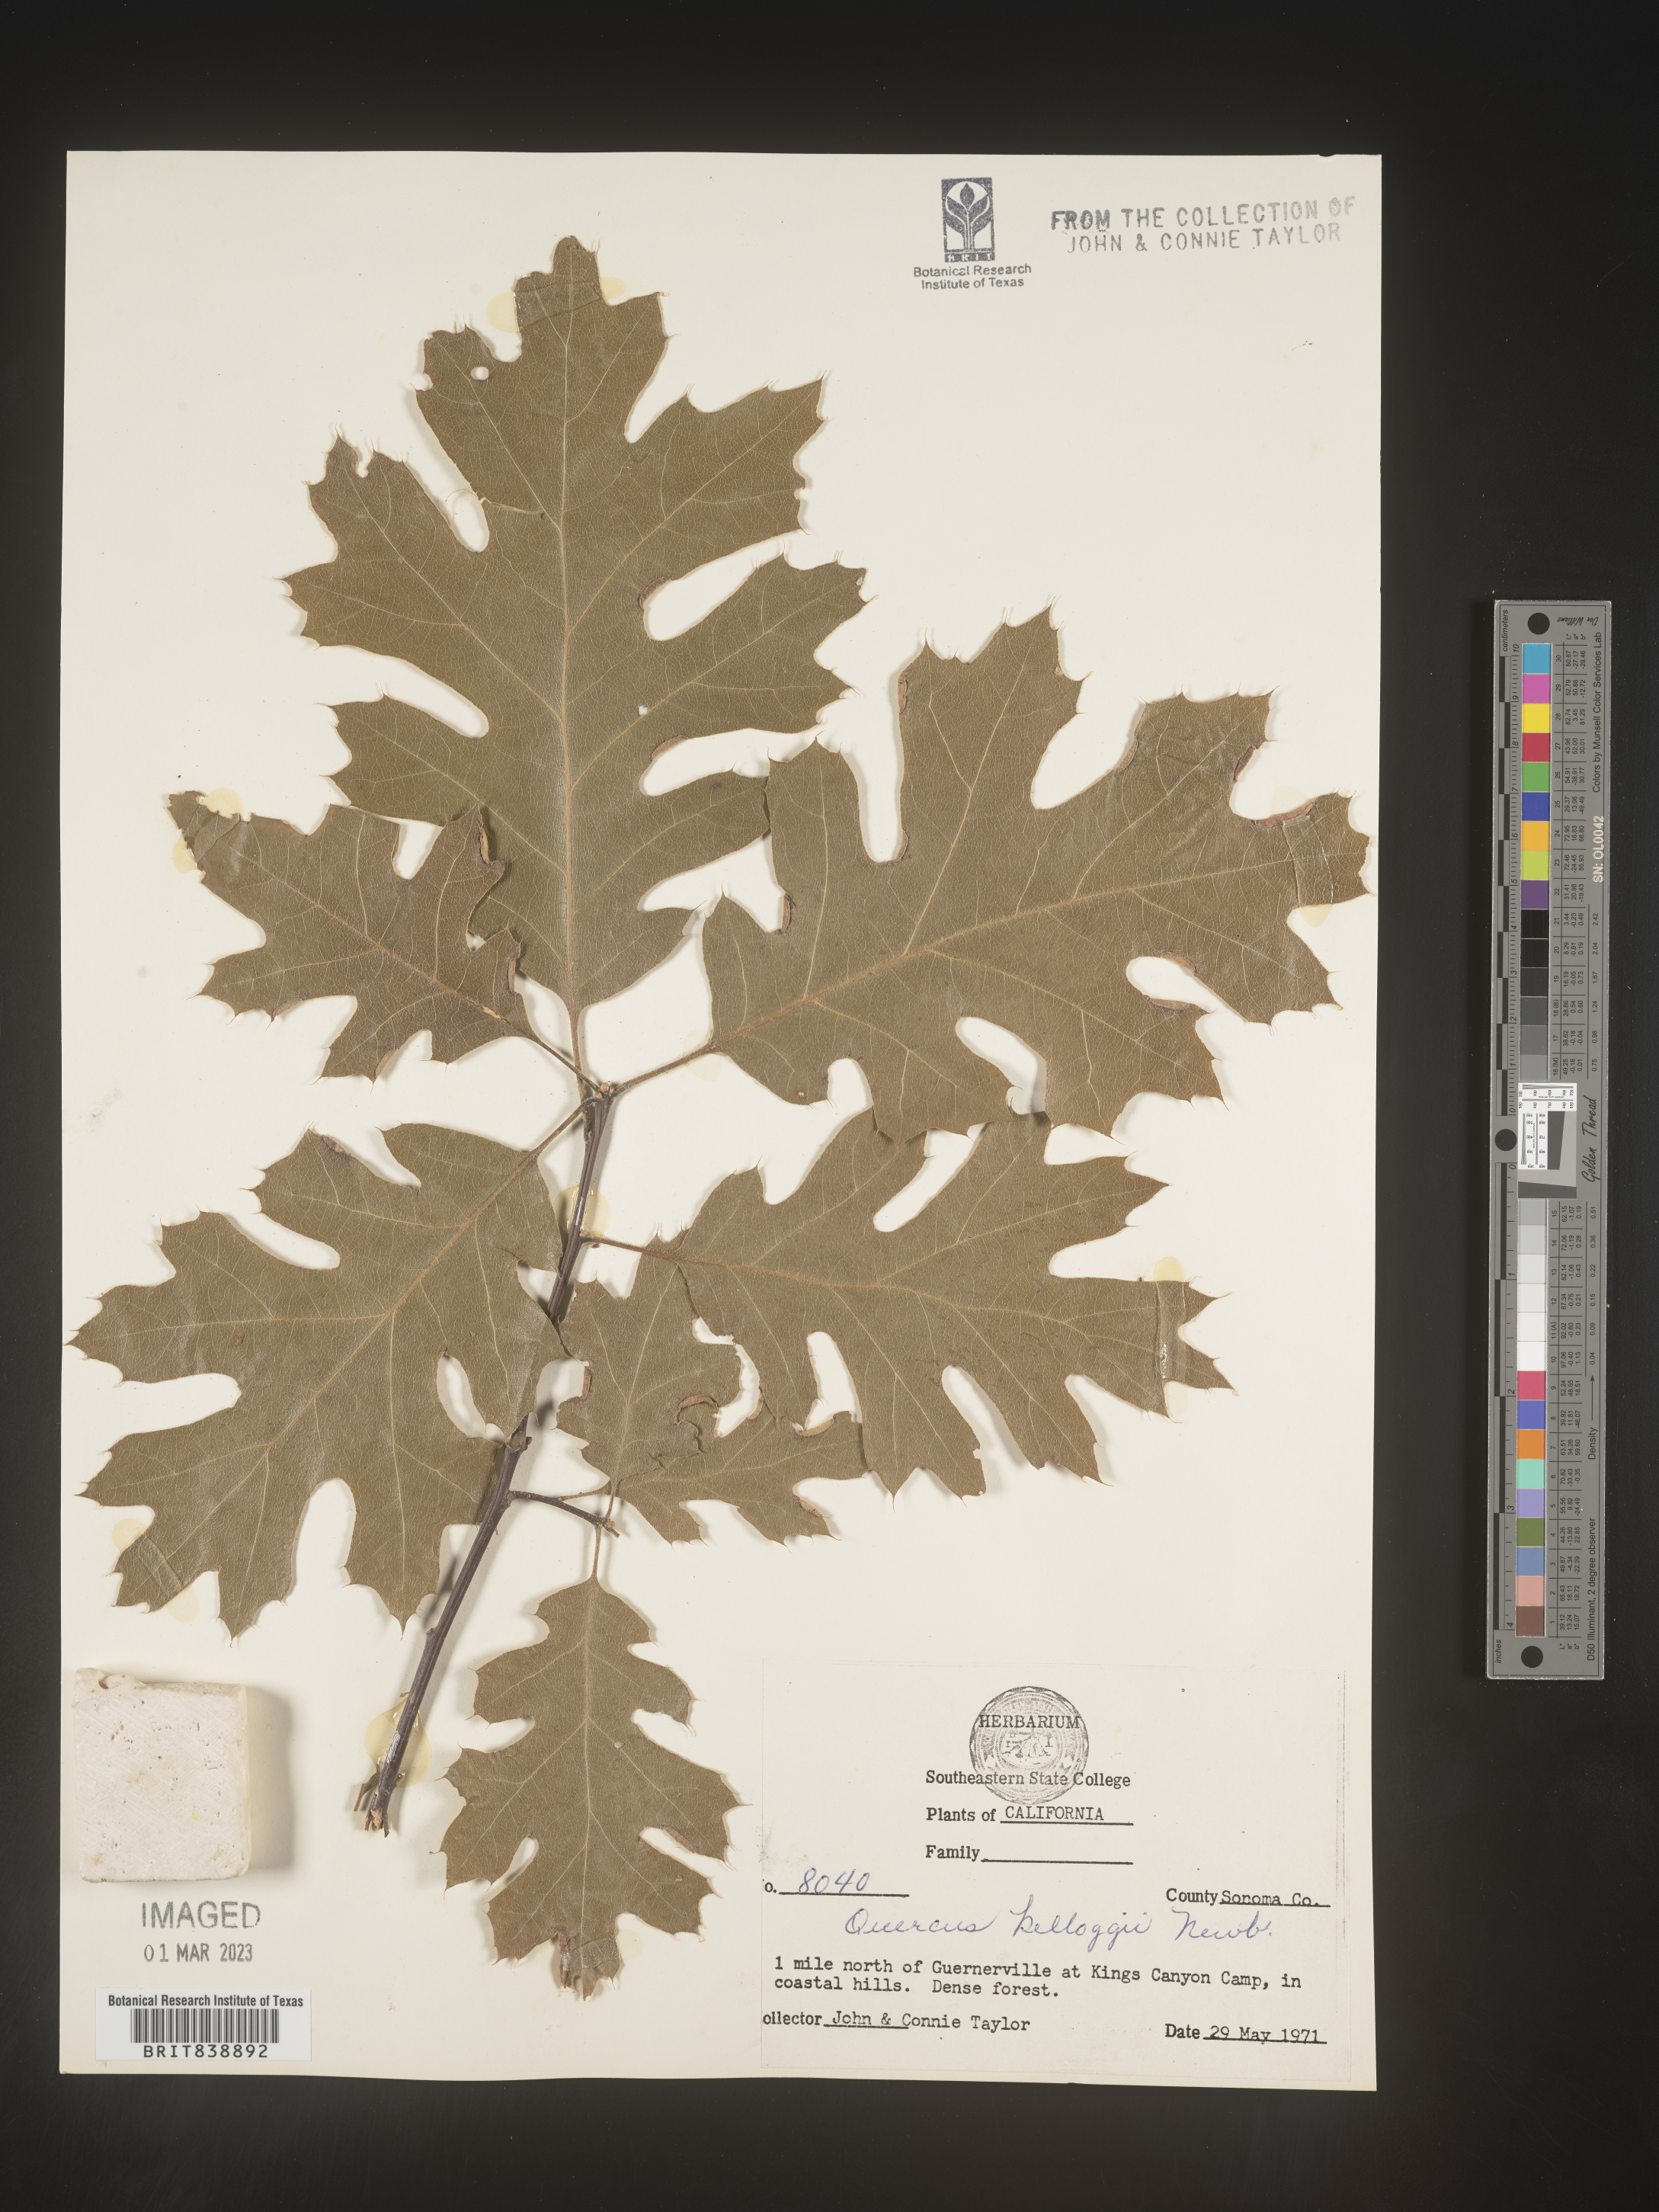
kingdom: Plantae
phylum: Tracheophyta
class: Magnoliopsida
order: Fagales
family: Fagaceae
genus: Quercus
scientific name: Quercus kelloggii
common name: California black oak
